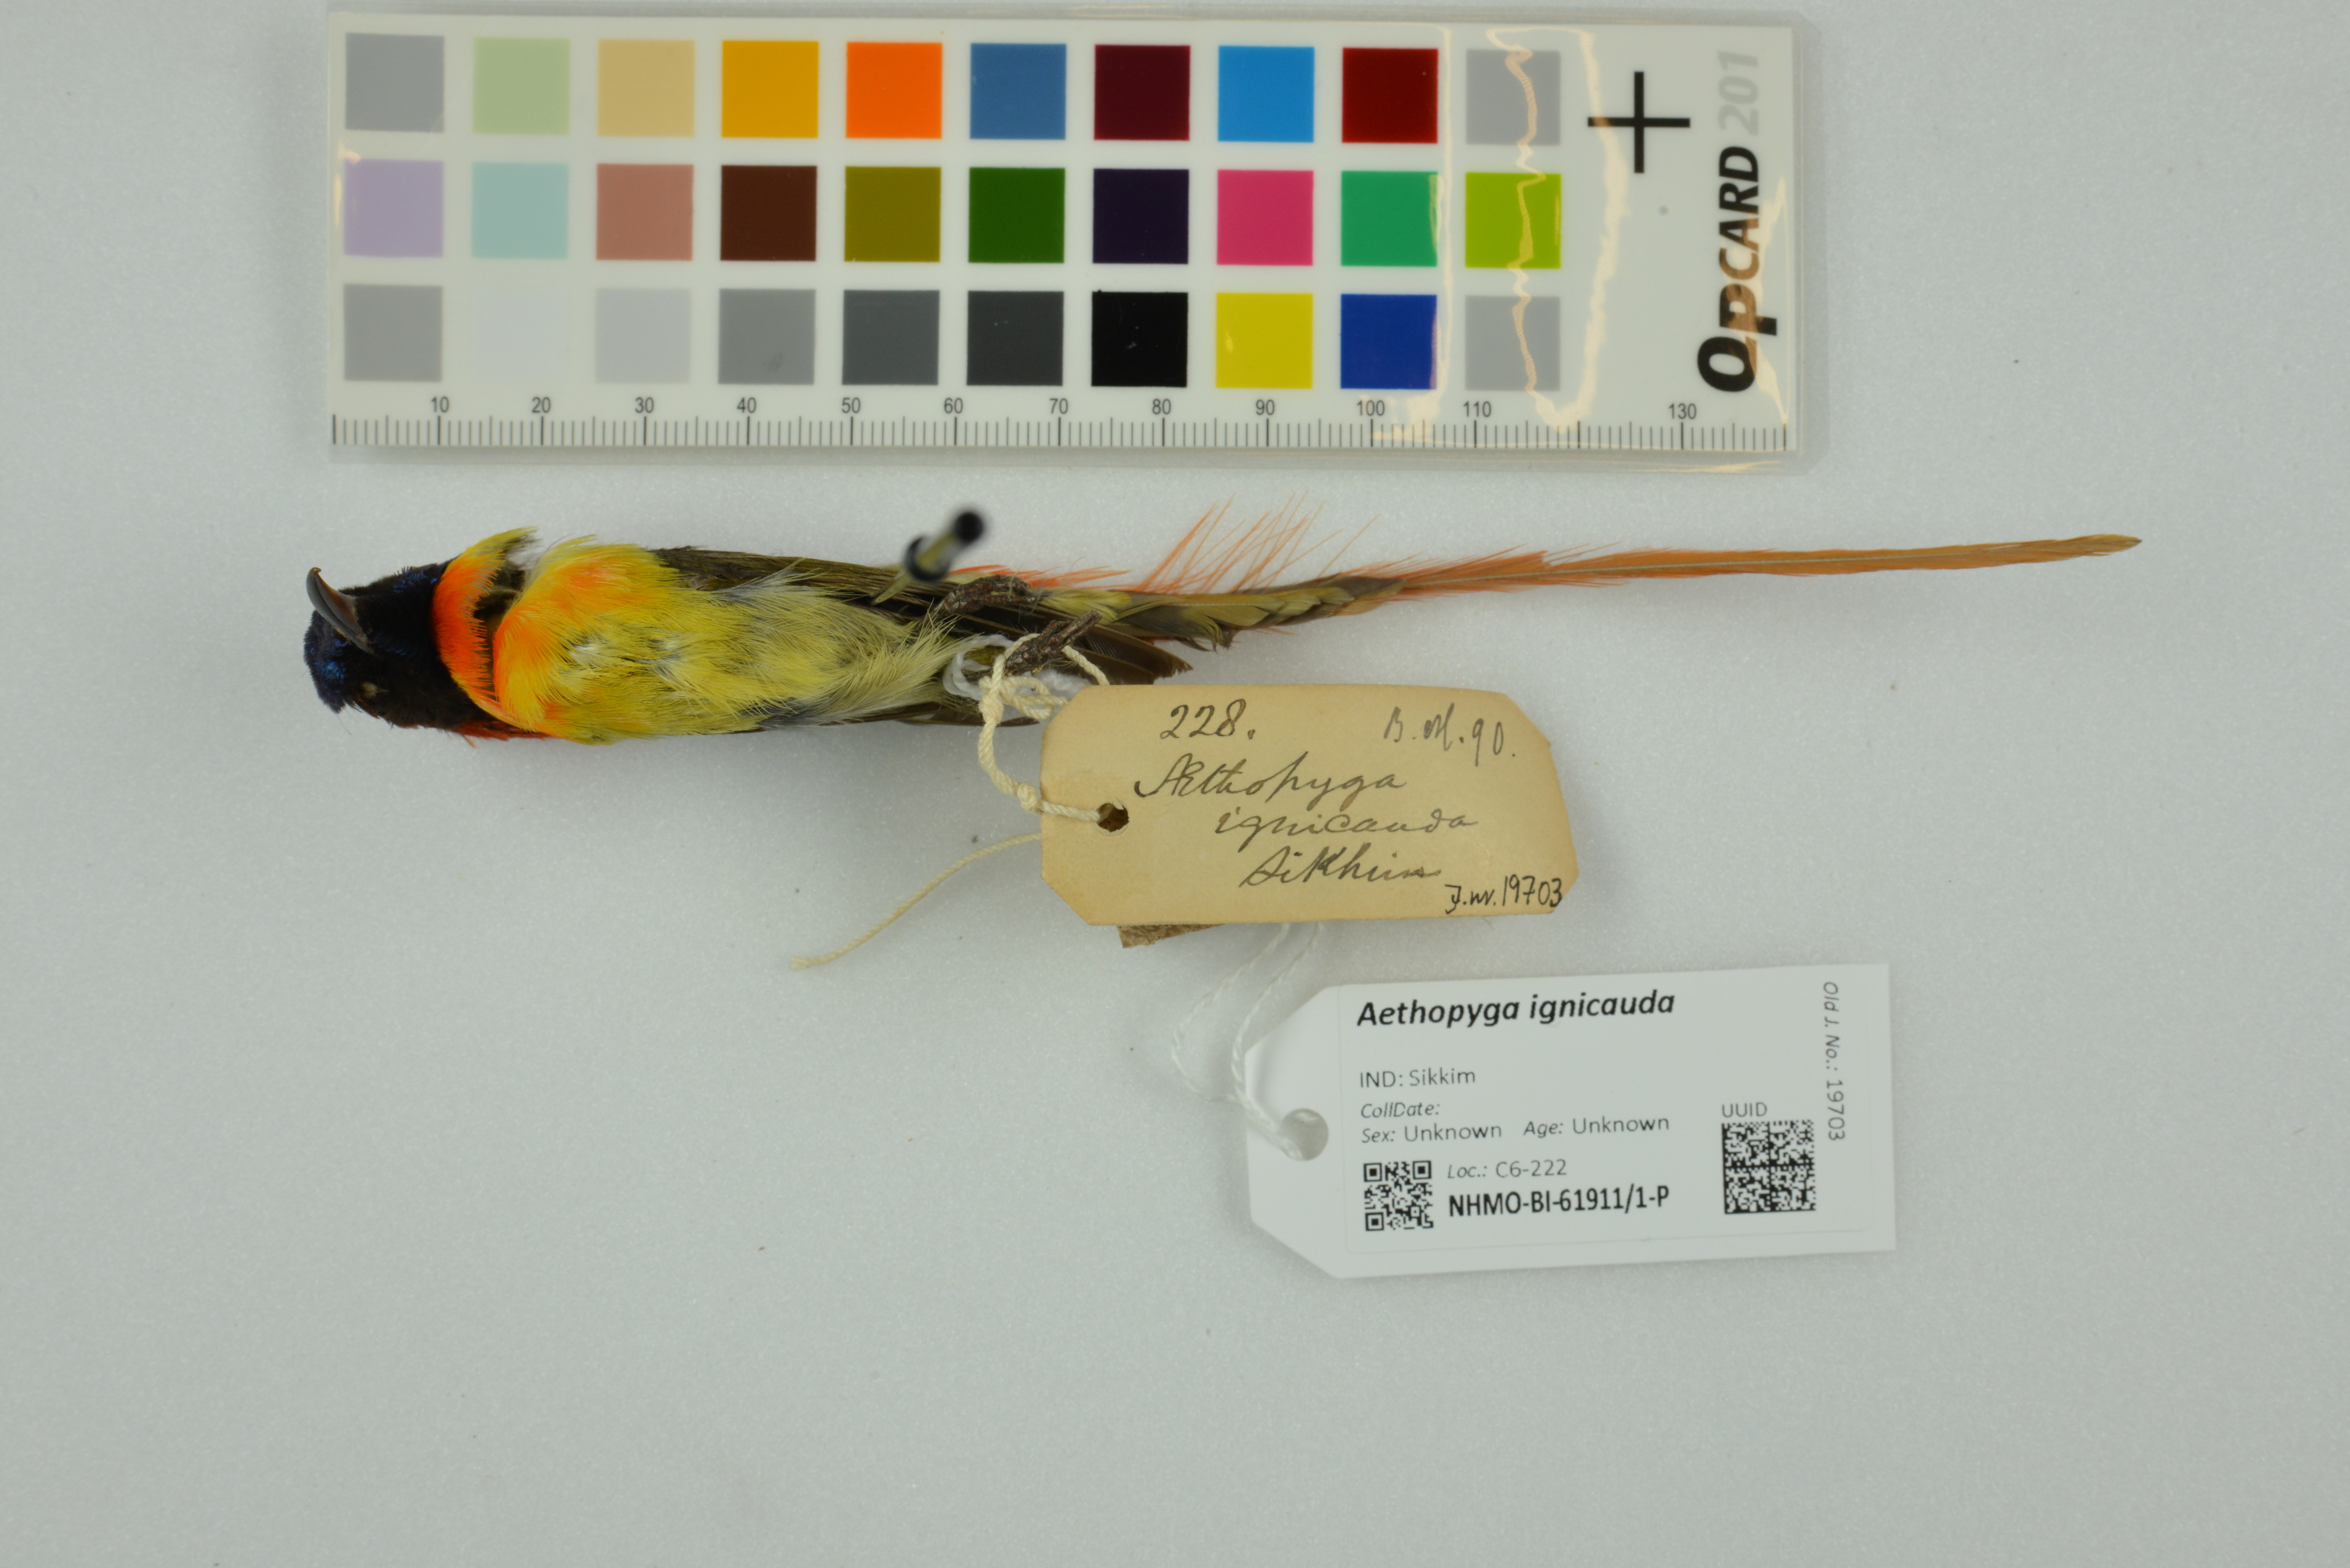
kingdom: Animalia
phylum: Chordata
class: Aves
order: Passeriformes
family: Nectariniidae
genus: Aethopyga
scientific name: Aethopyga ignicauda
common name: Fire-tailed sunbird
